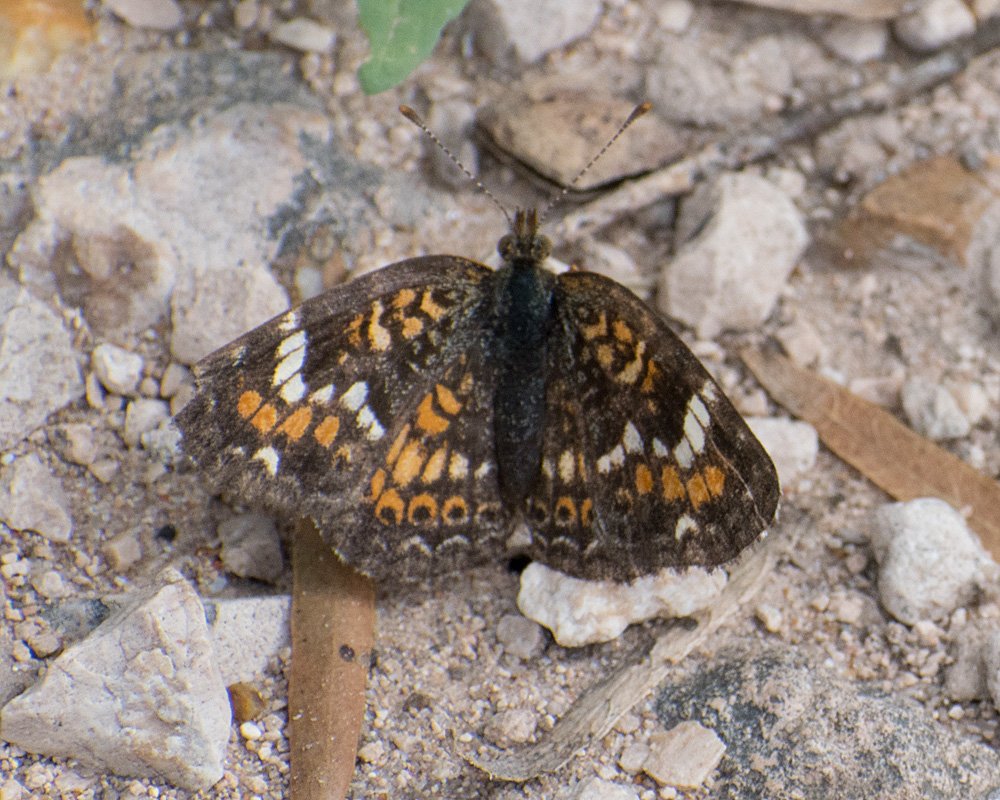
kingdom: Animalia
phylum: Arthropoda
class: Insecta
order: Lepidoptera
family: Nymphalidae
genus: Phyciodes
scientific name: Phyciodes phaon
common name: Phaon Crescent
